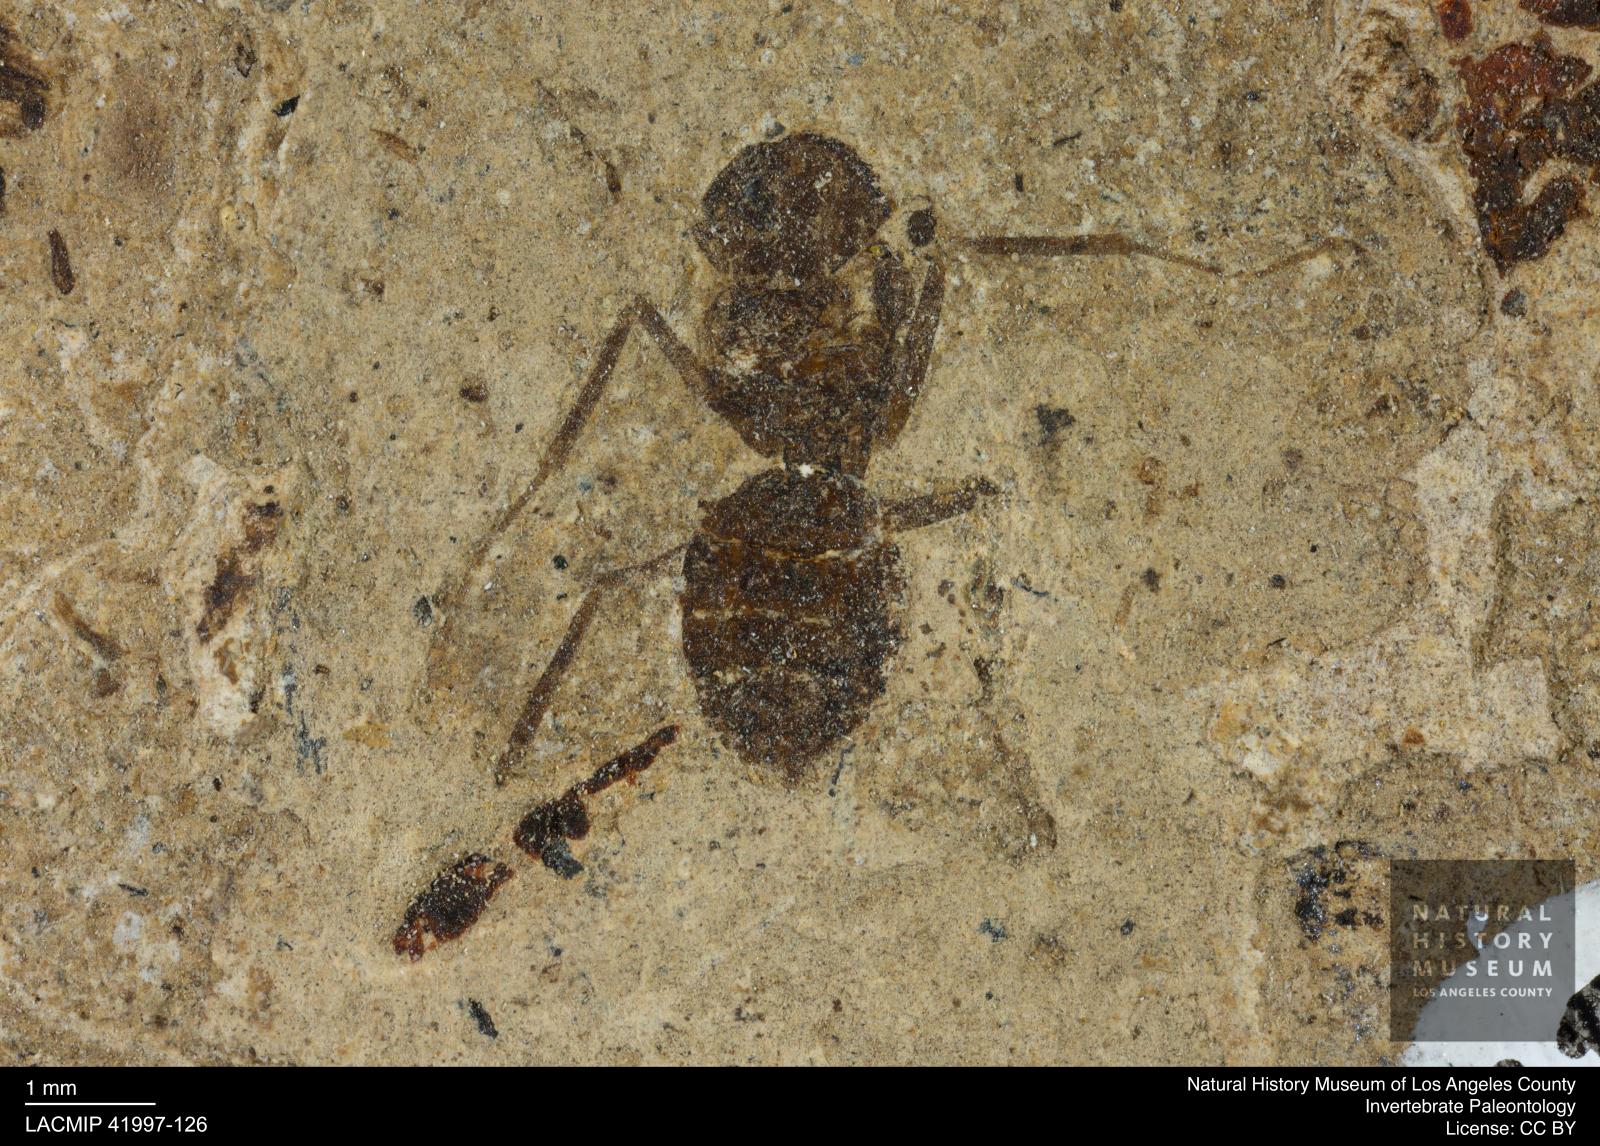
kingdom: Animalia
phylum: Arthropoda
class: Insecta
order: Hymenoptera
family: Formicidae
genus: Formica
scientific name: Formica
